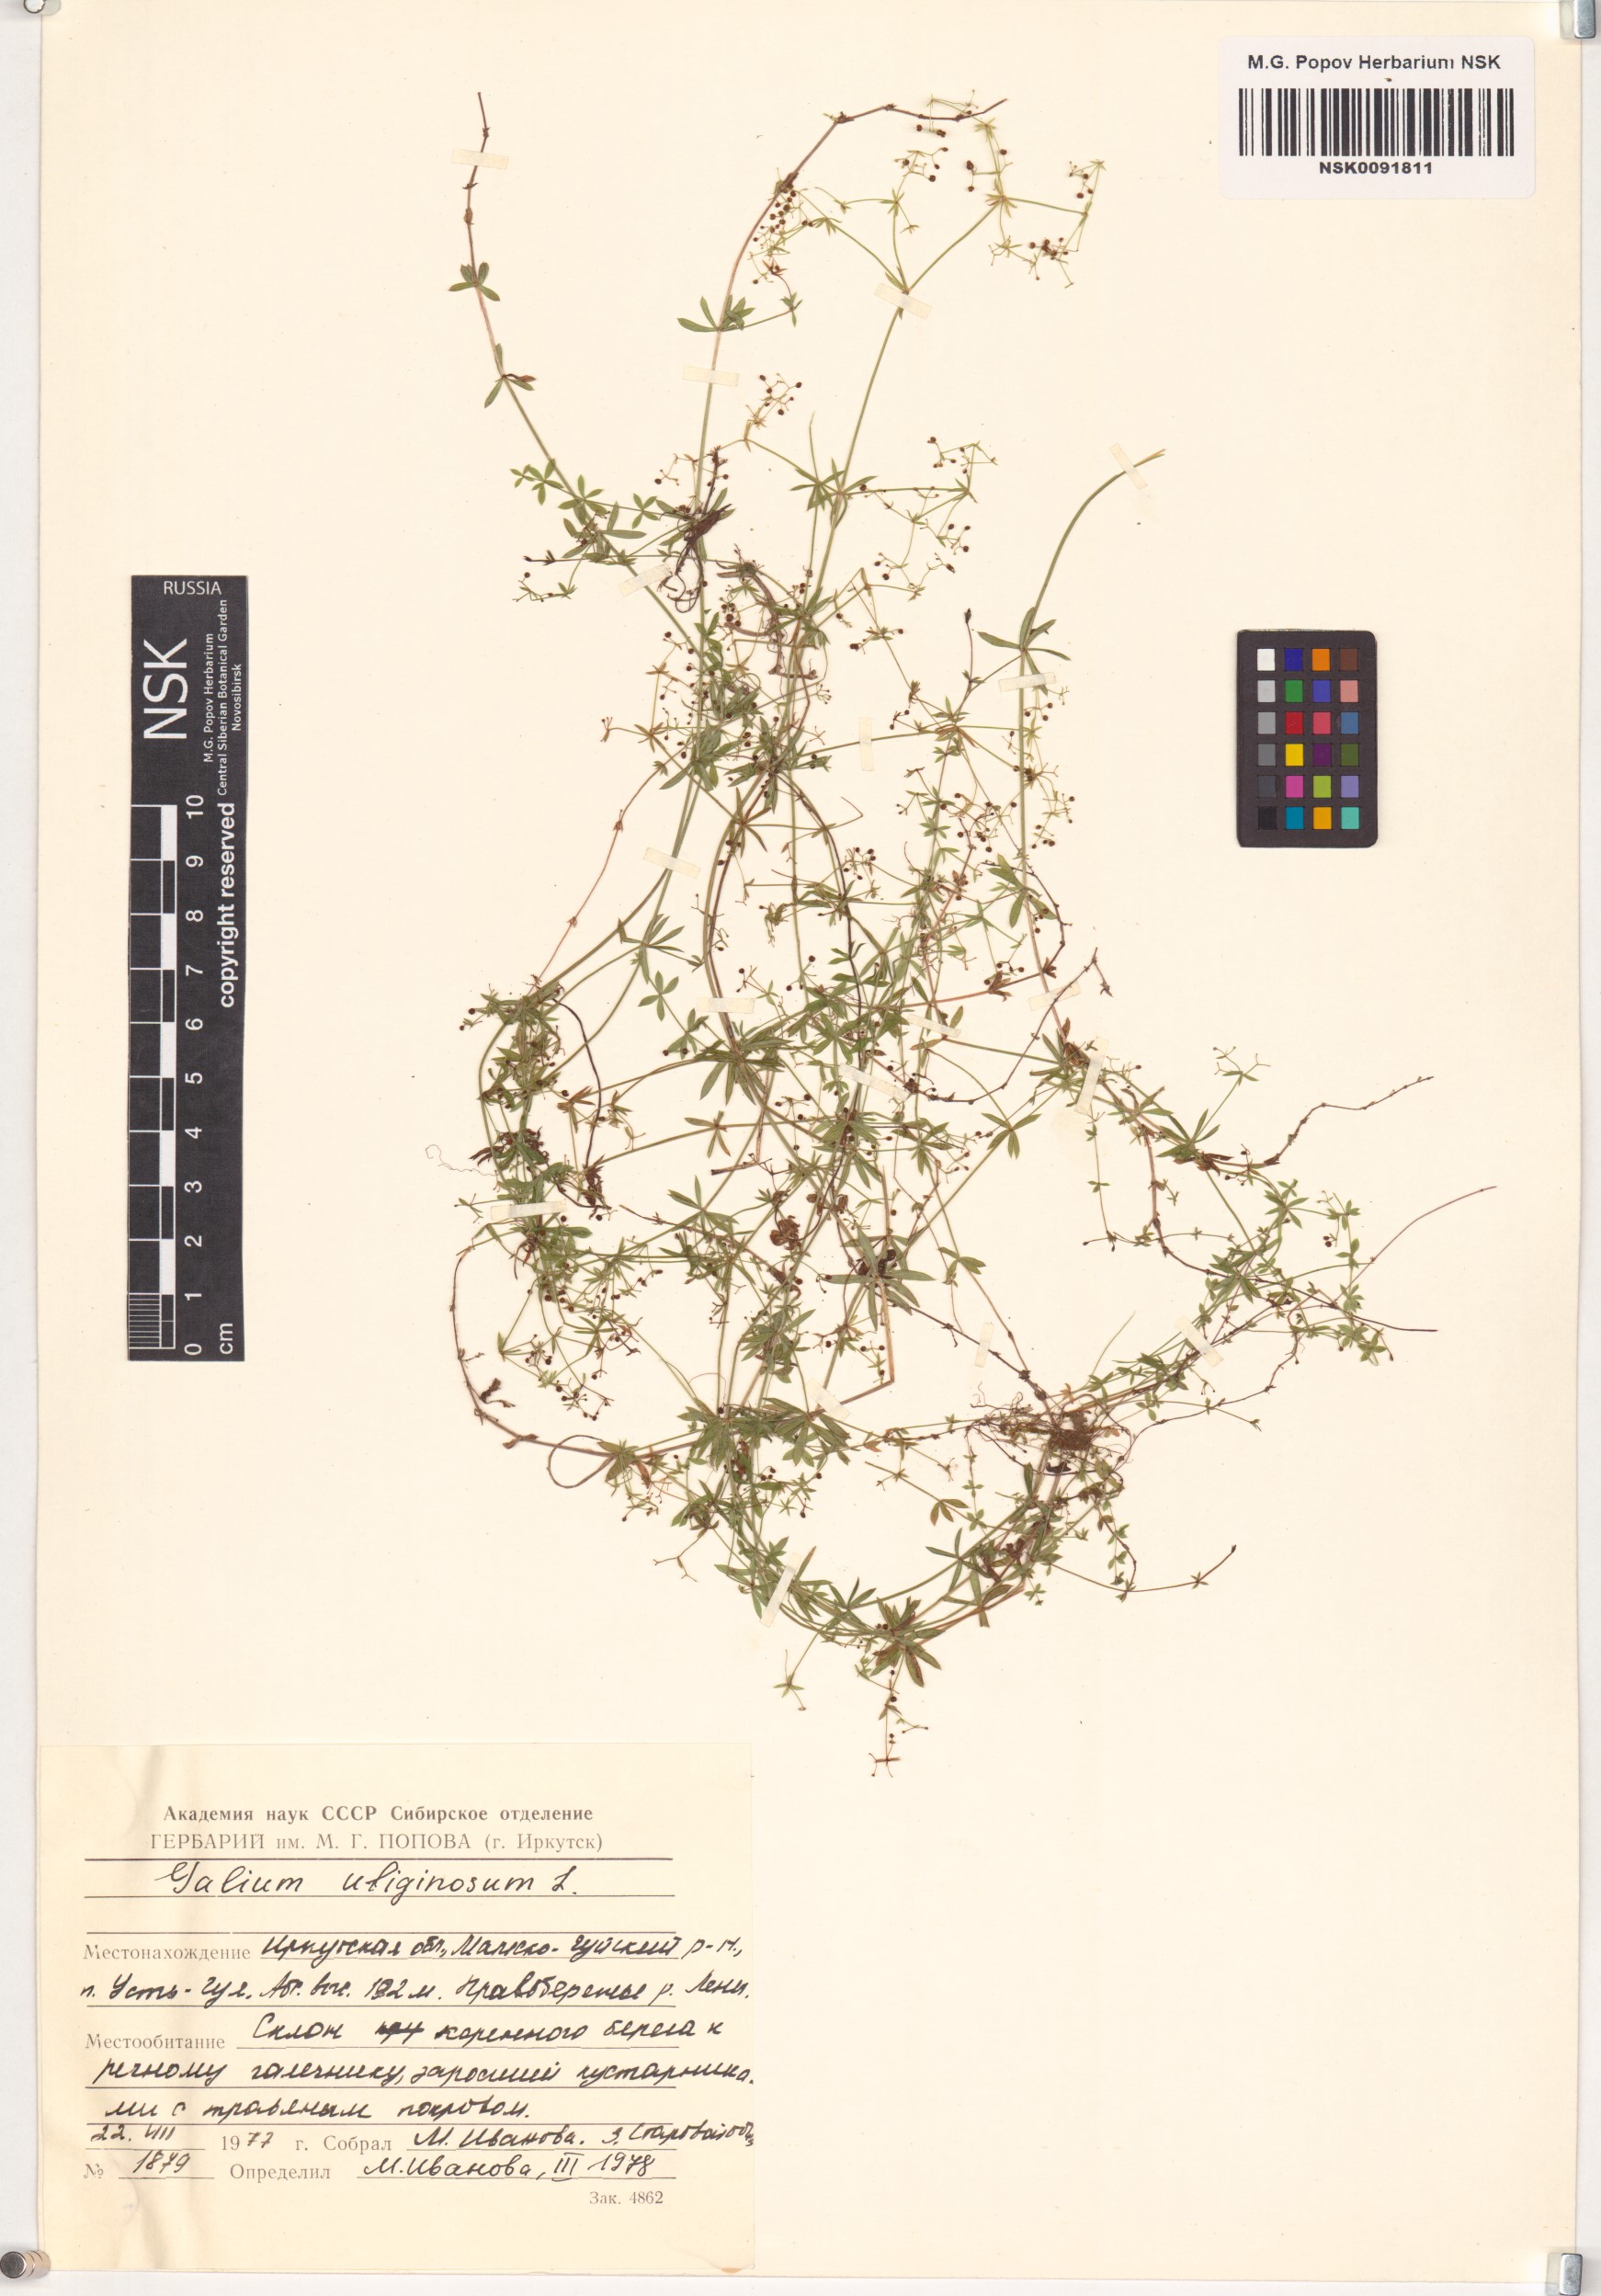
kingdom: Plantae
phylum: Tracheophyta
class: Magnoliopsida
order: Gentianales
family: Rubiaceae
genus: Galium
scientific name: Galium uliginosum
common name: Fen bedstraw
